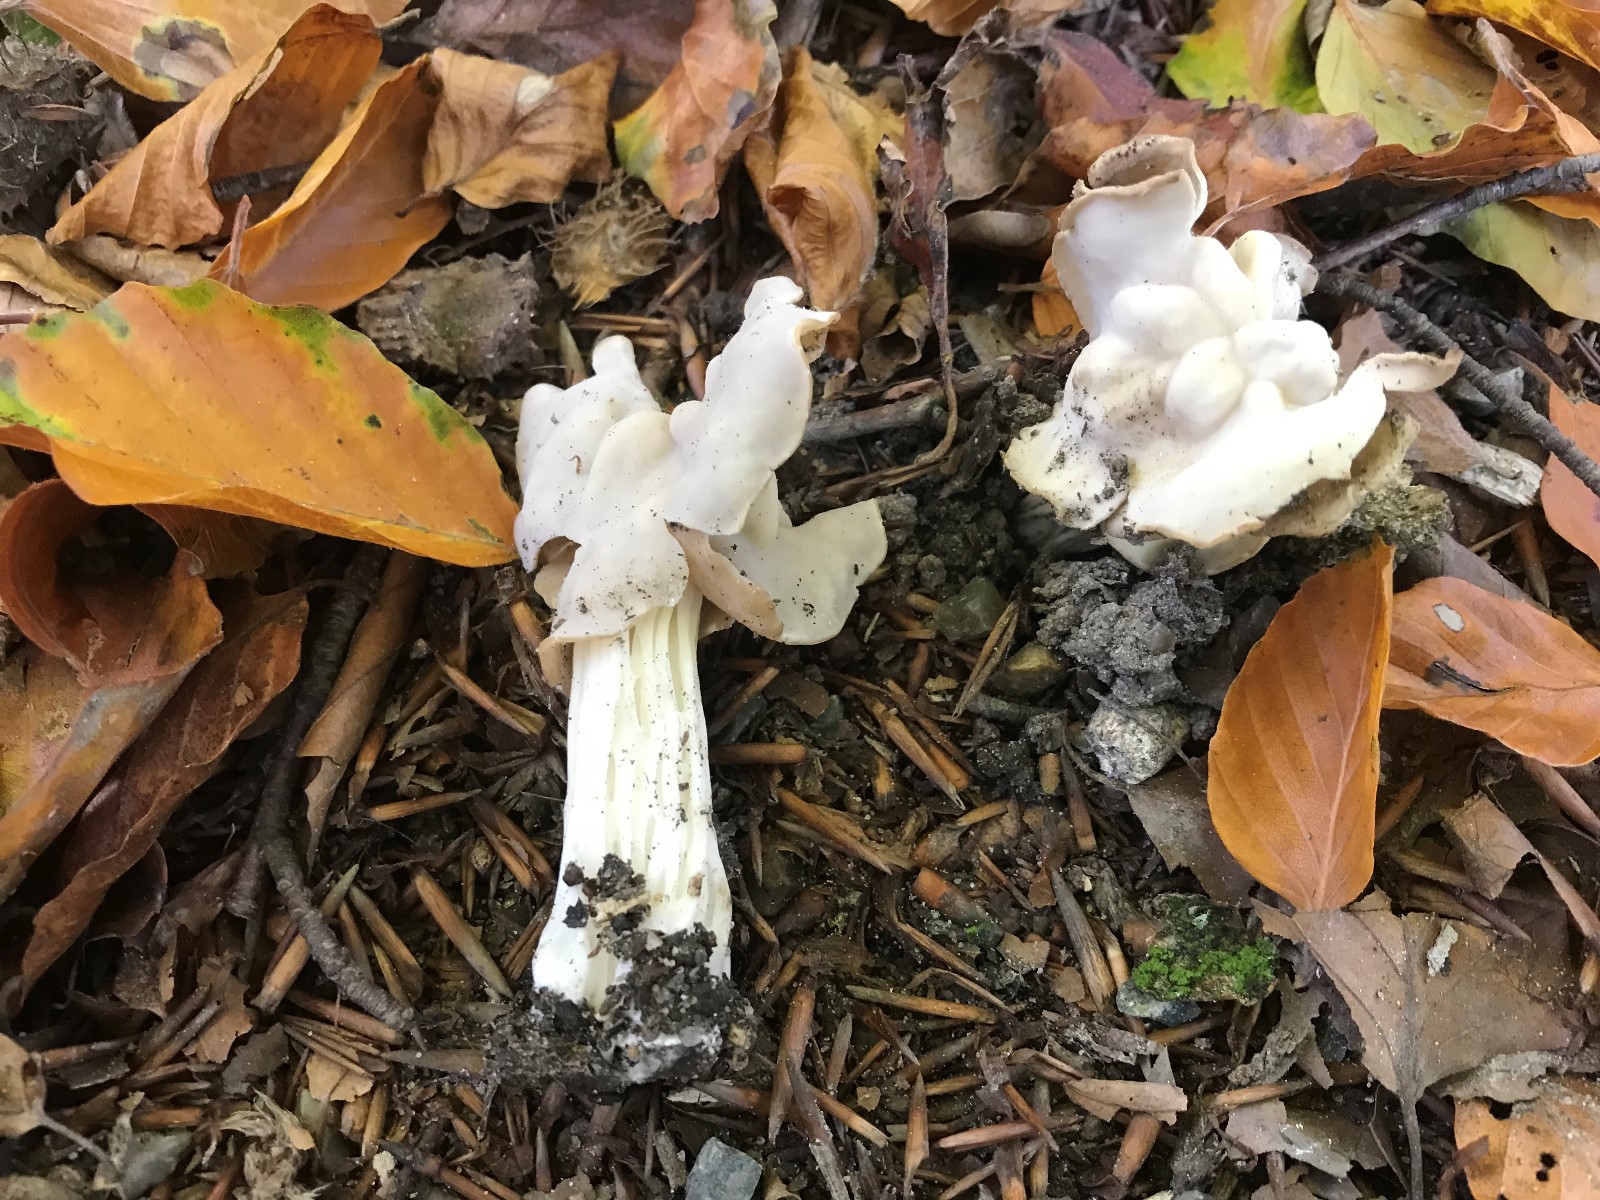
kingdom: Fungi
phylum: Ascomycota
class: Pezizomycetes
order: Pezizales
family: Helvellaceae
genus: Helvella
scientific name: Helvella crispa
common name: kruset foldhat
